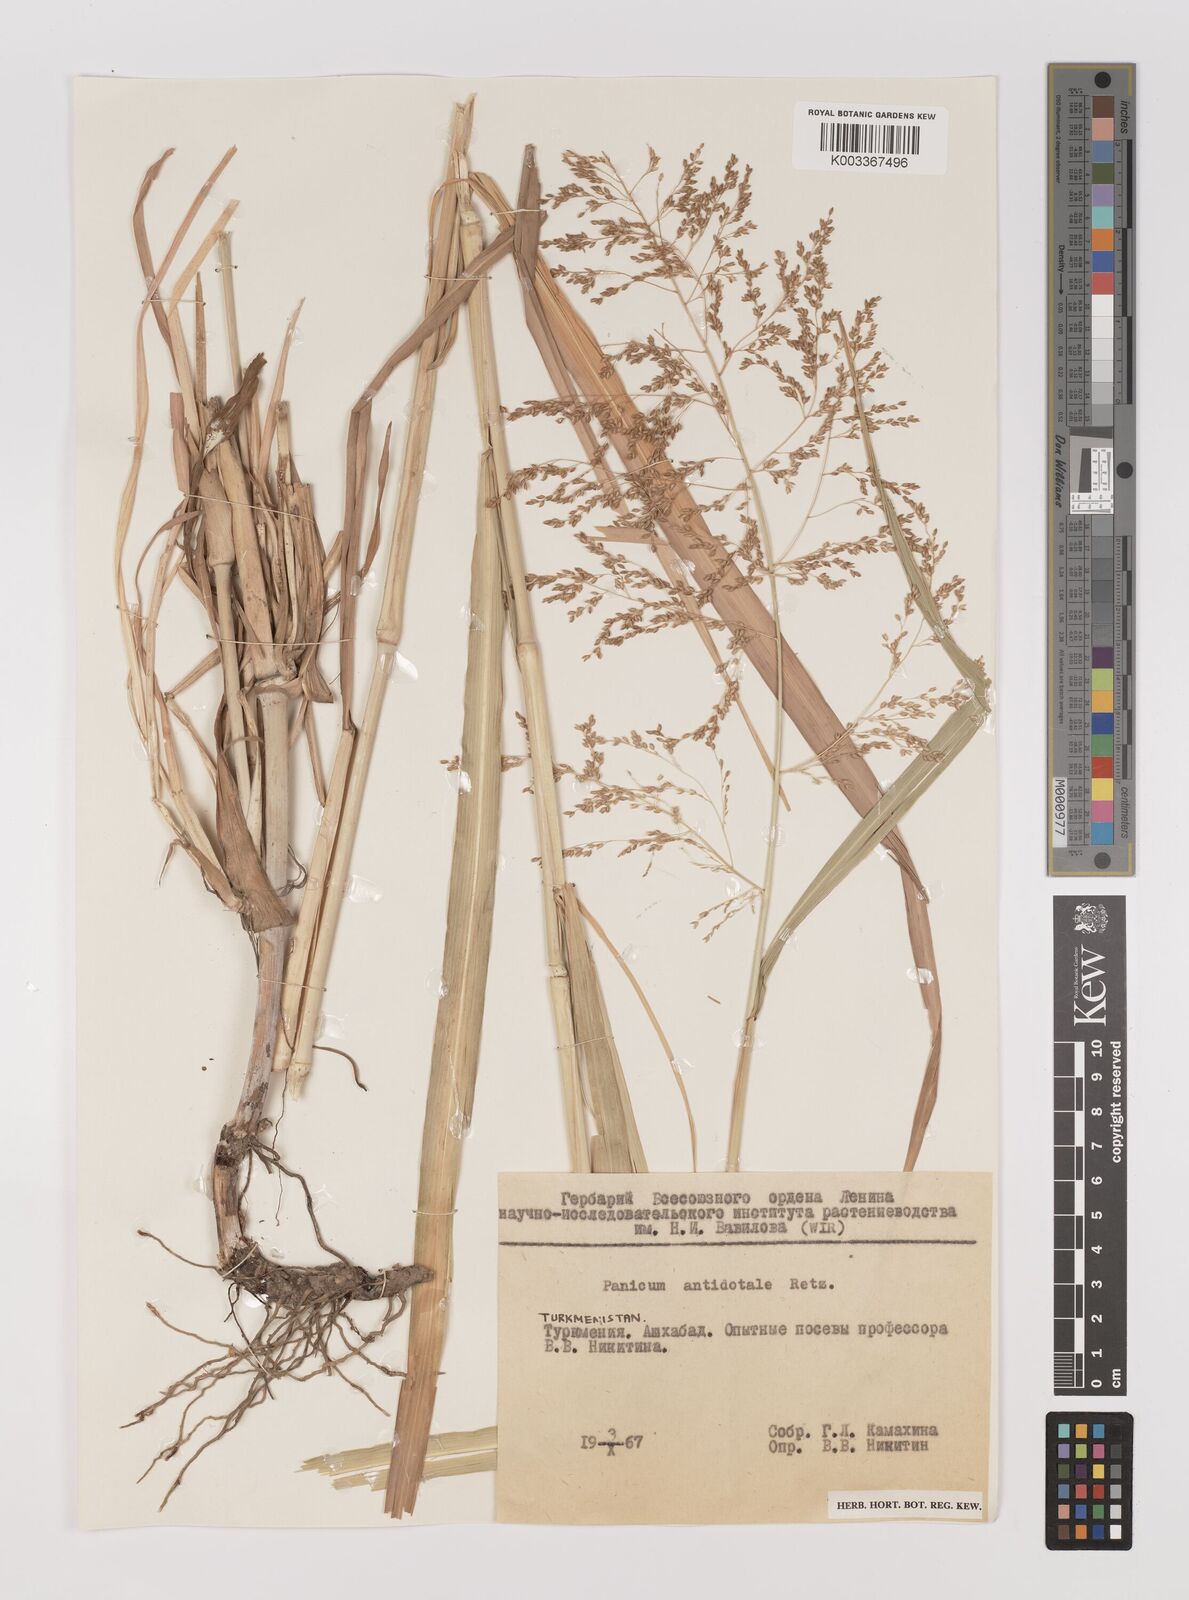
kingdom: Plantae
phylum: Tracheophyta
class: Liliopsida
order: Poales
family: Poaceae
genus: Panicum
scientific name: Panicum antidotale
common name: Blue panicum
